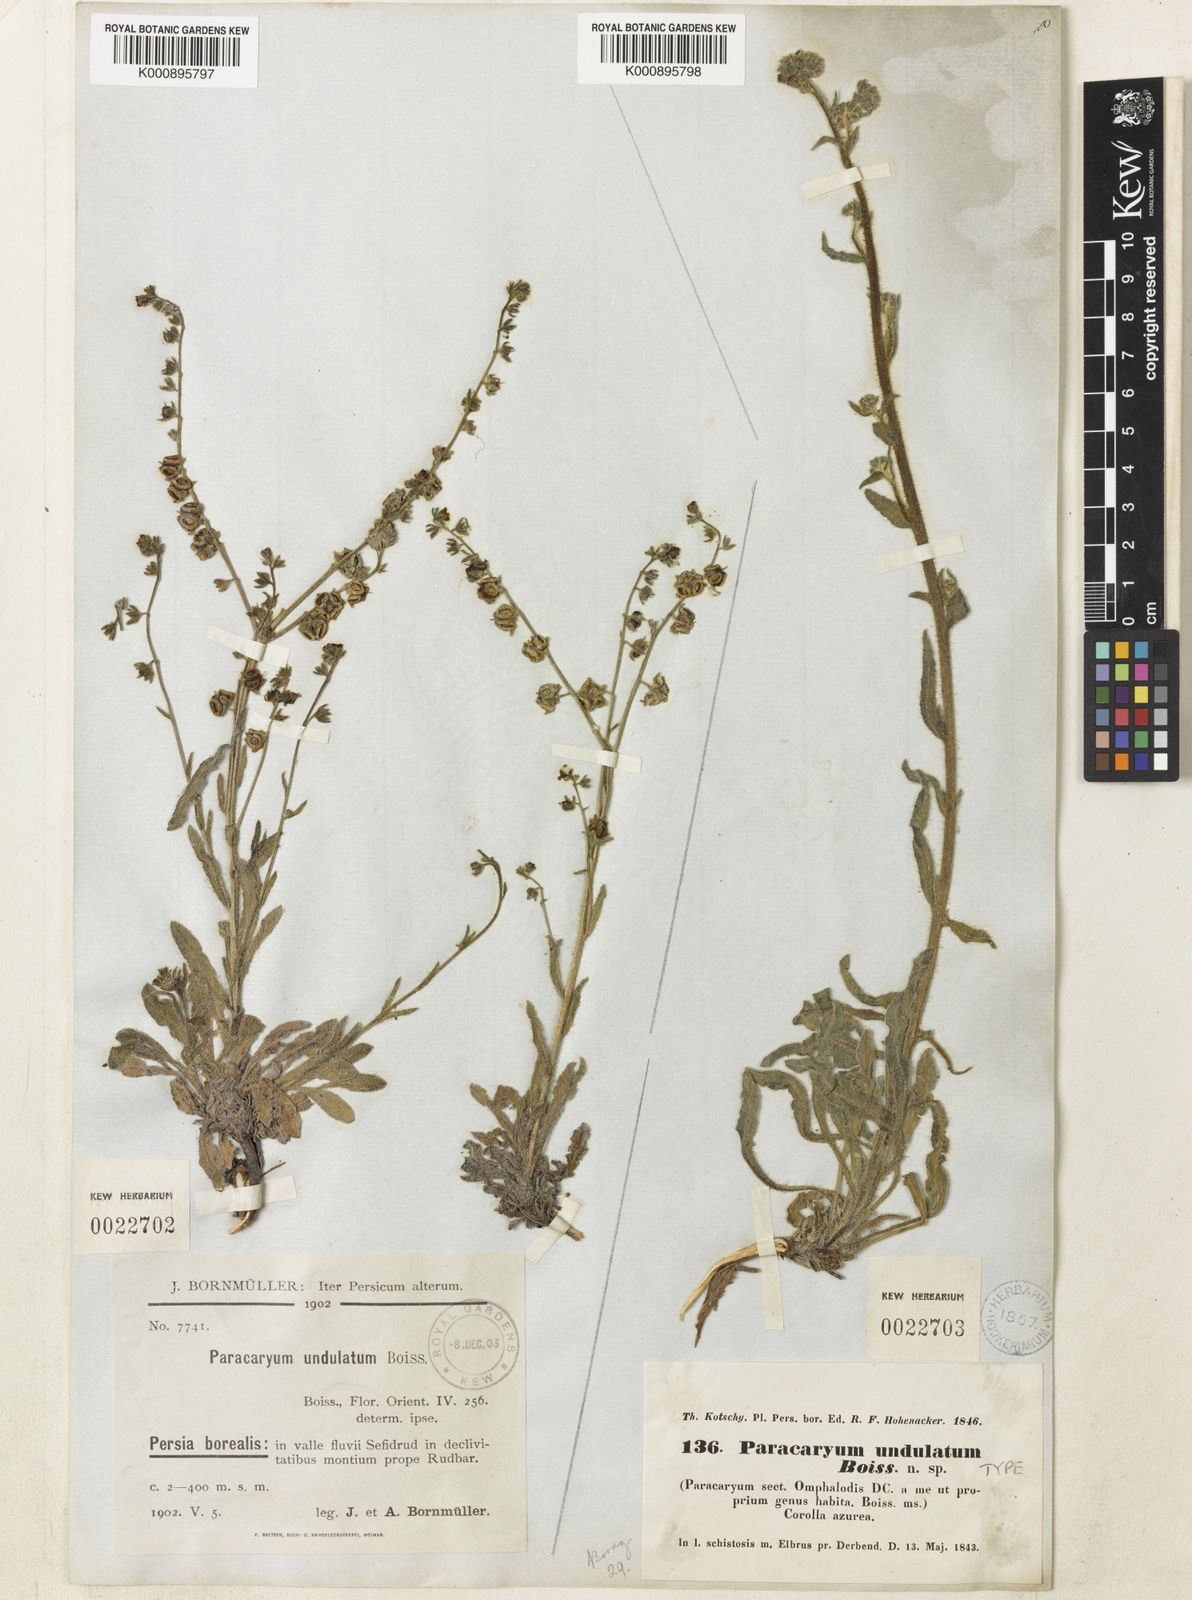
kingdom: Plantae
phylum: Tracheophyta
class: Magnoliopsida
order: Boraginales
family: Boraginaceae
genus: Paracaryum
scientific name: Paracaryum strictum
